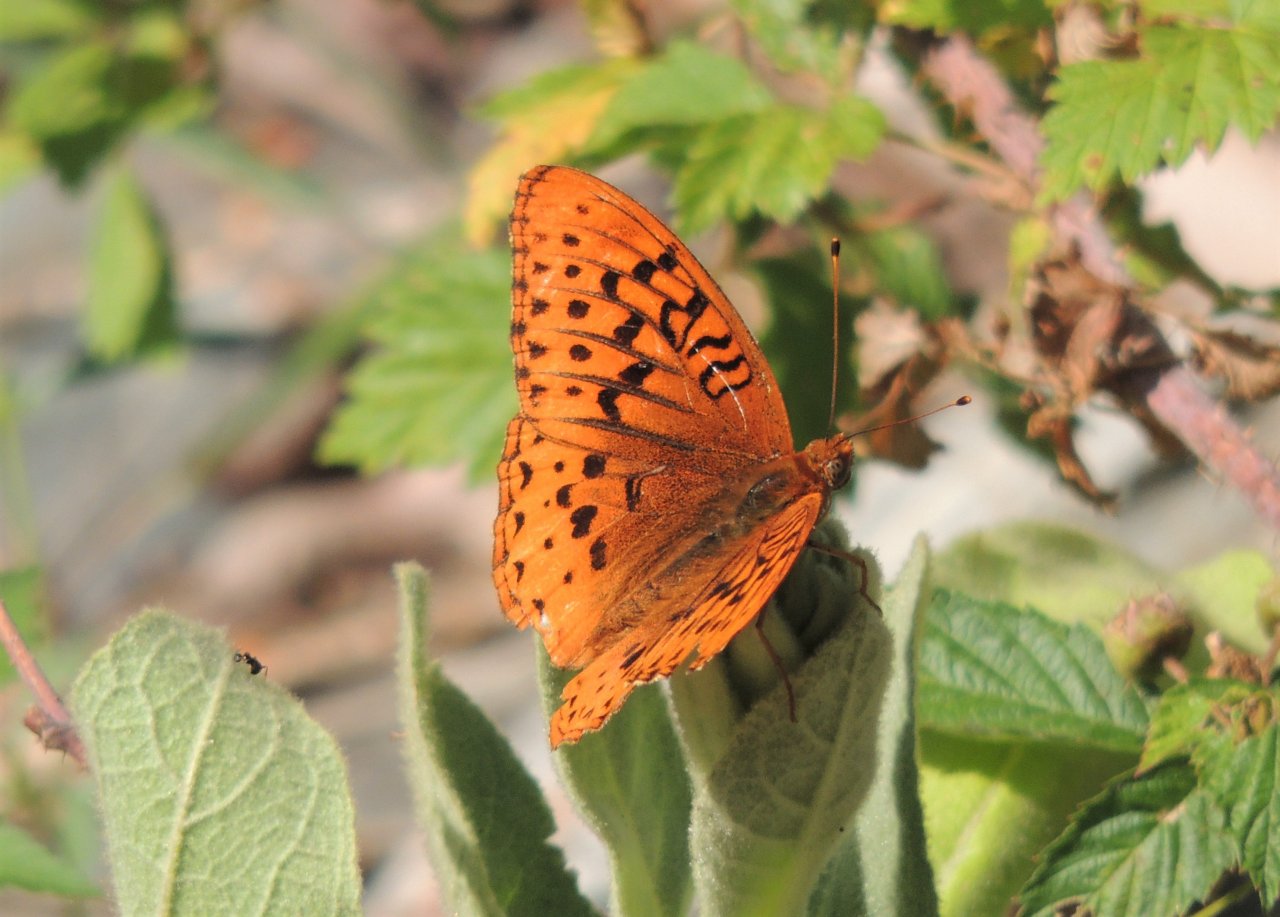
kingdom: Animalia
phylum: Arthropoda
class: Insecta
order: Lepidoptera
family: Nymphalidae
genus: Speyeria
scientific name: Speyeria cybele
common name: Great Spangled Fritillary
